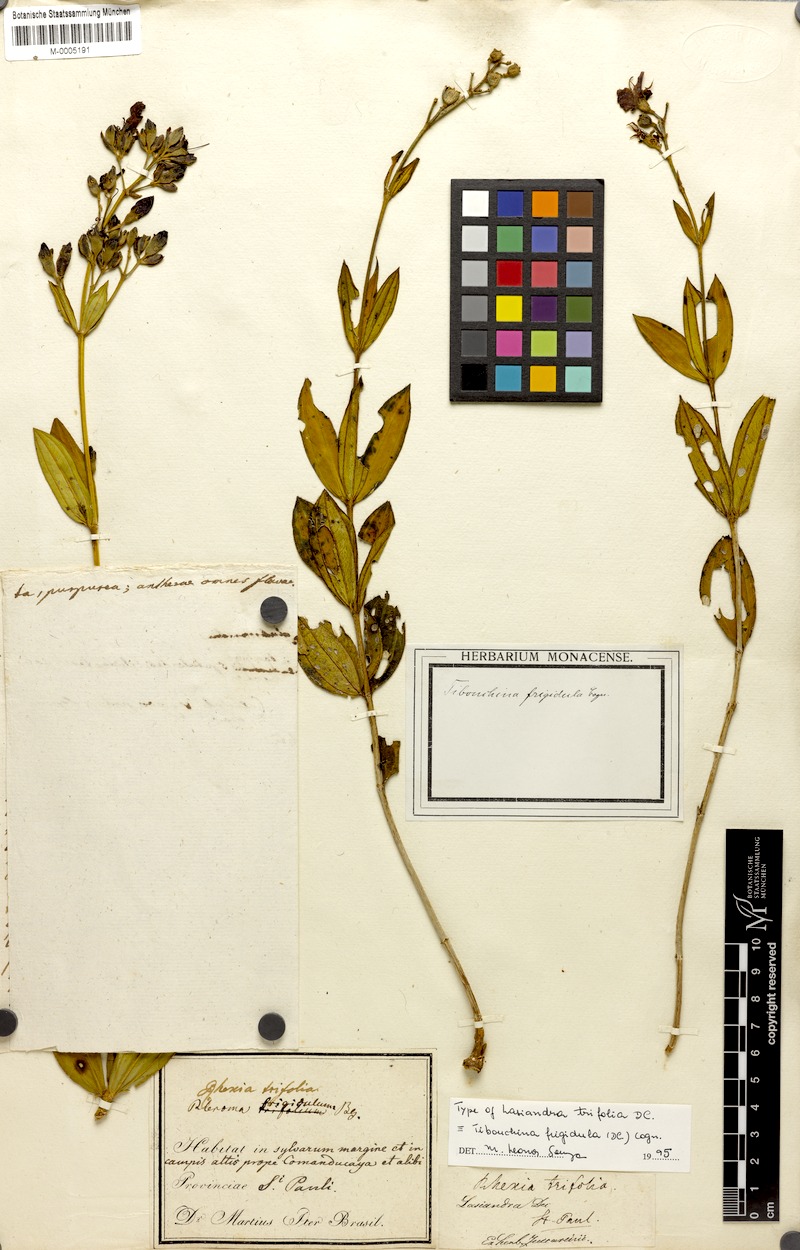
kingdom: Plantae
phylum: Tracheophyta
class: Magnoliopsida
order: Myrtales
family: Melastomataceae
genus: Pleroma
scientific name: Pleroma martiusianum
